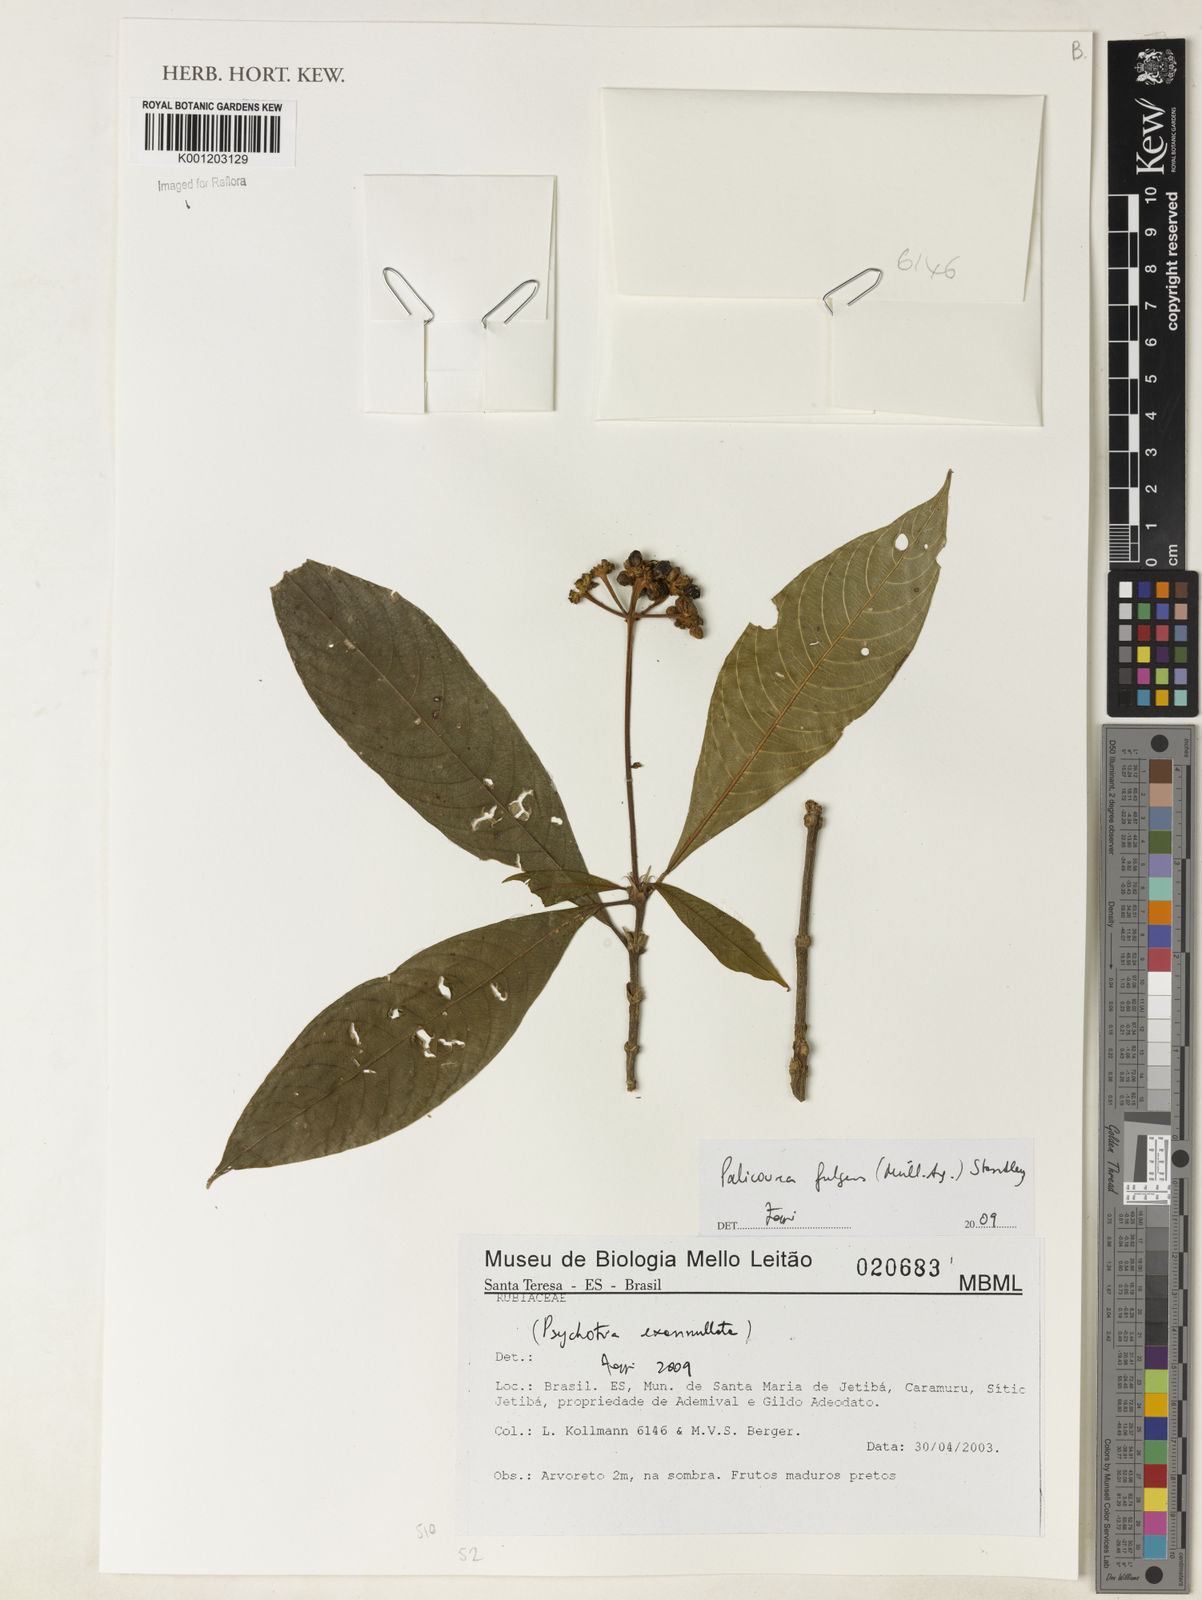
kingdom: Plantae
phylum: Tracheophyta
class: Magnoliopsida
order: Gentianales
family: Rubiaceae
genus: Palicourea
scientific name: Palicourea
